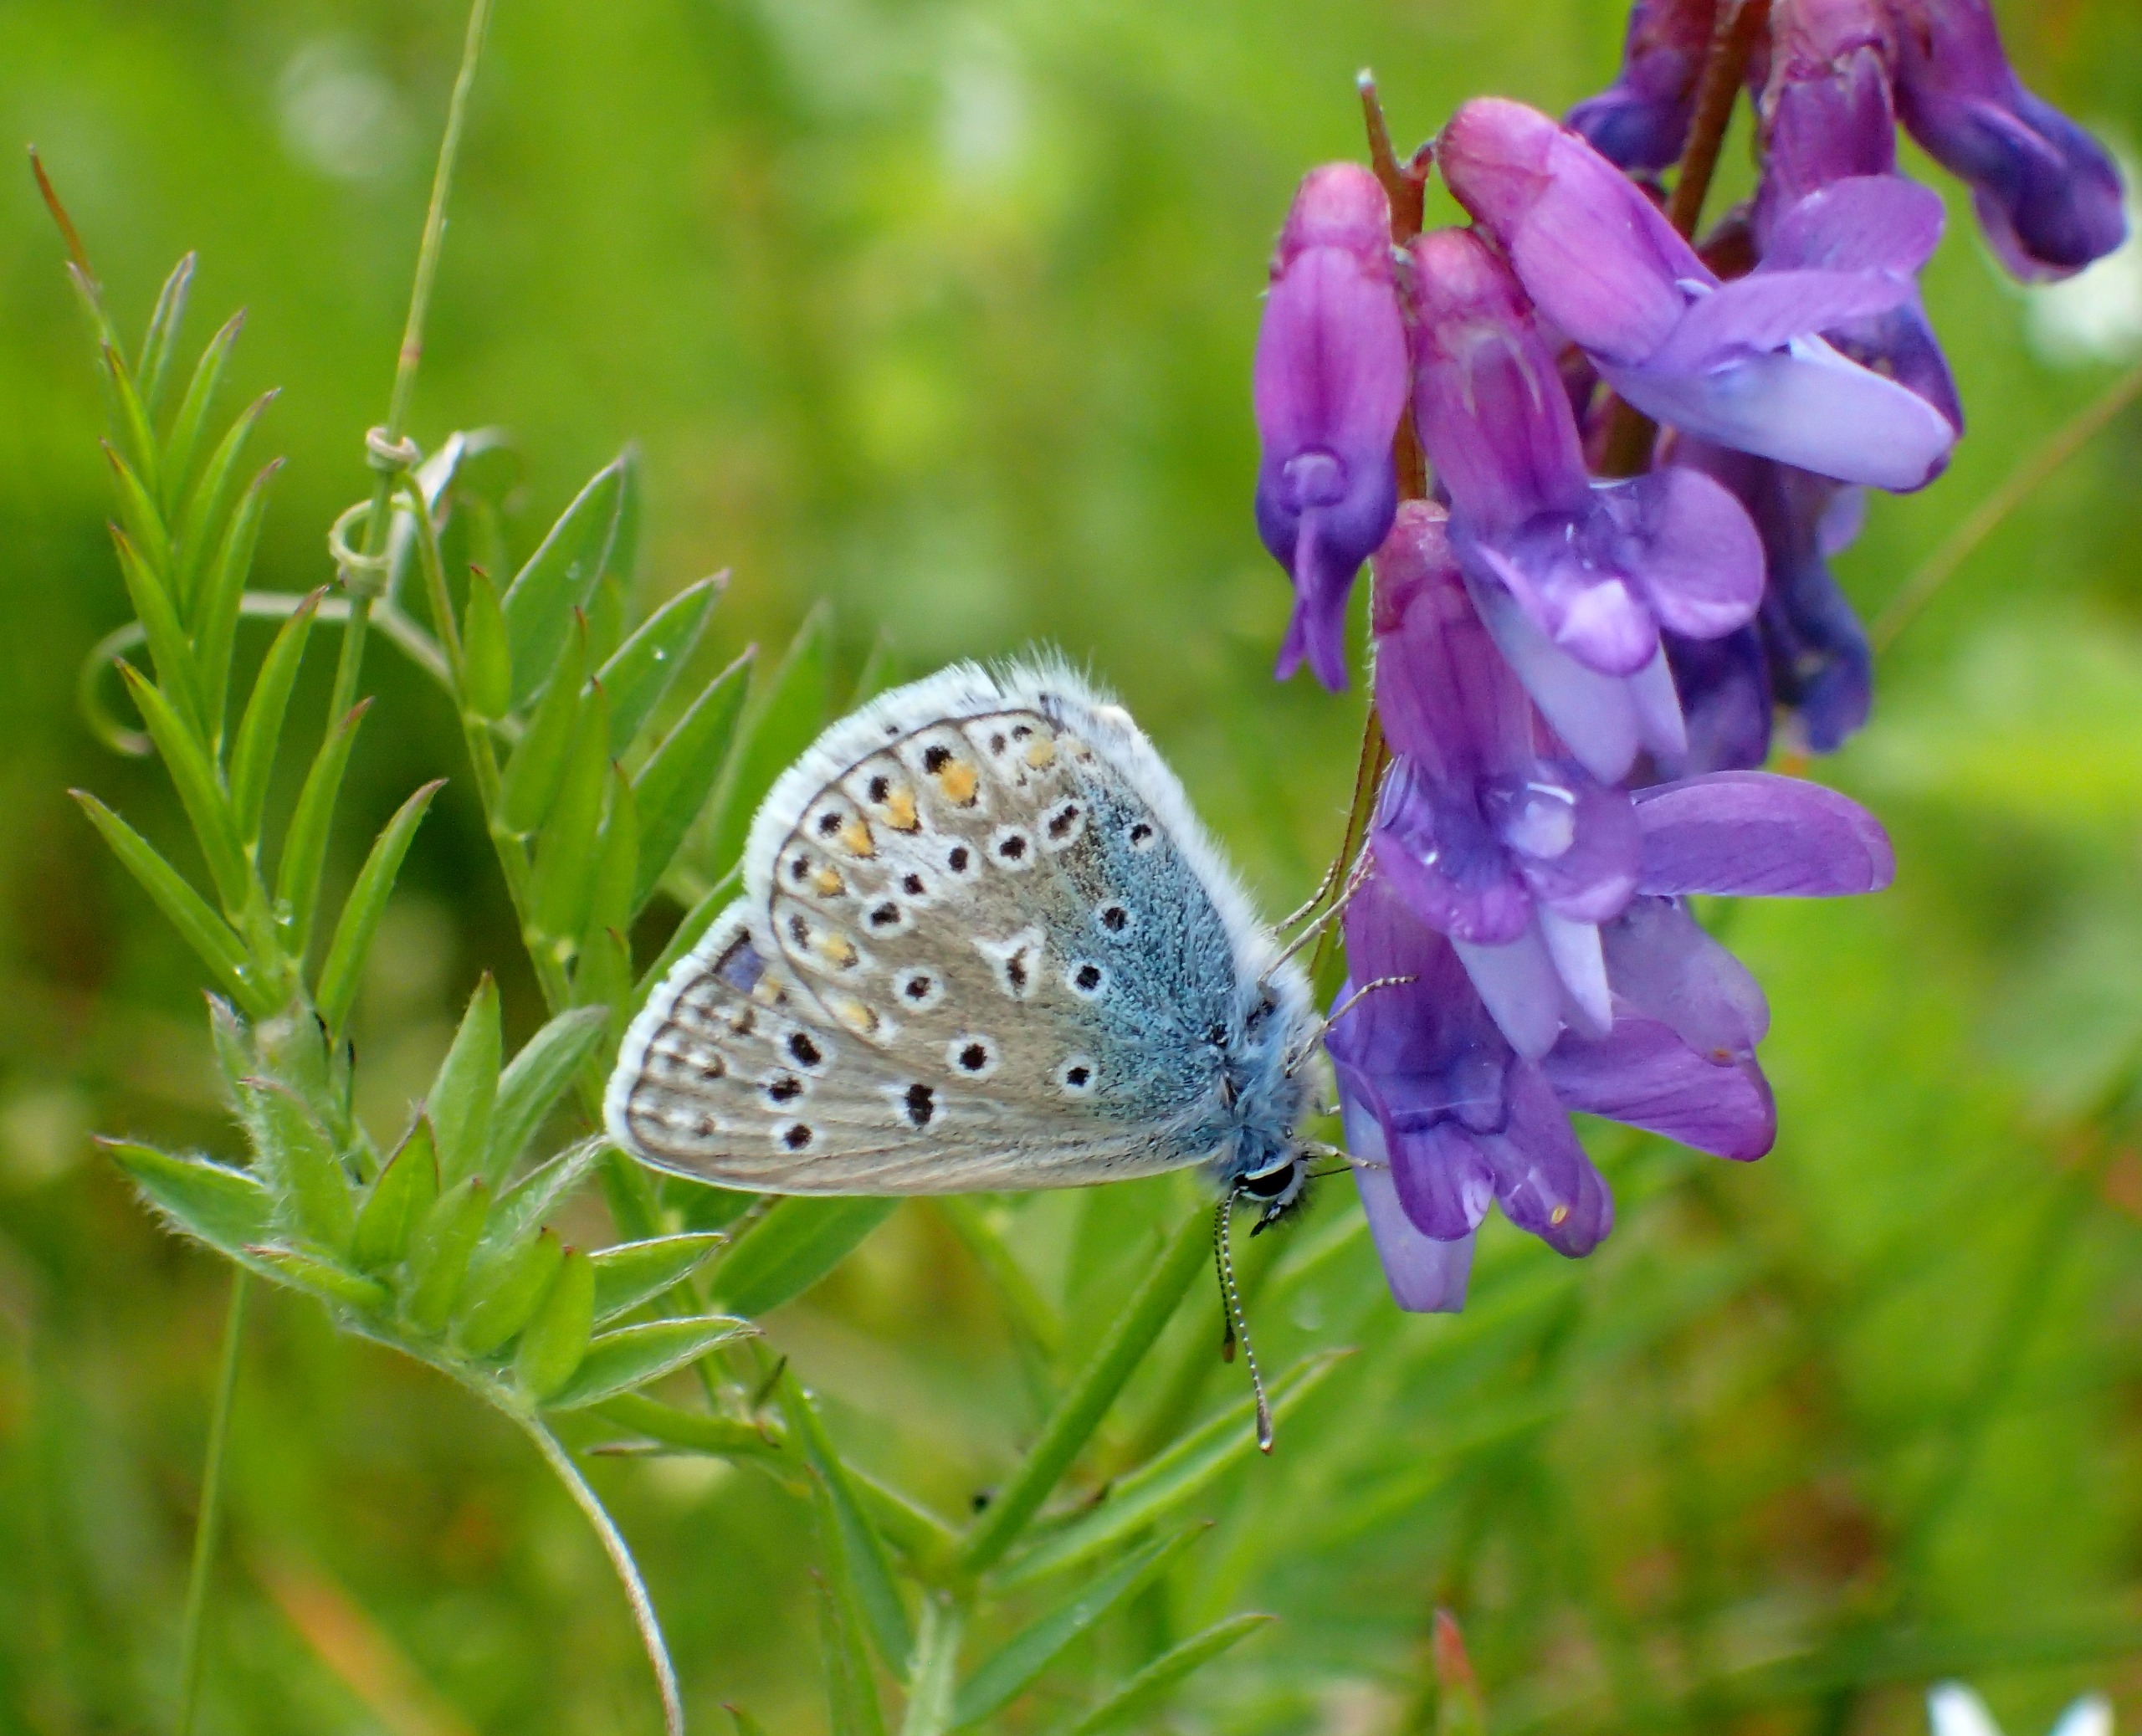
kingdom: Animalia
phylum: Arthropoda
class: Insecta
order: Lepidoptera
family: Lycaenidae
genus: Polyommatus
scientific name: Polyommatus icarus
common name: Almindelig blåfugl
